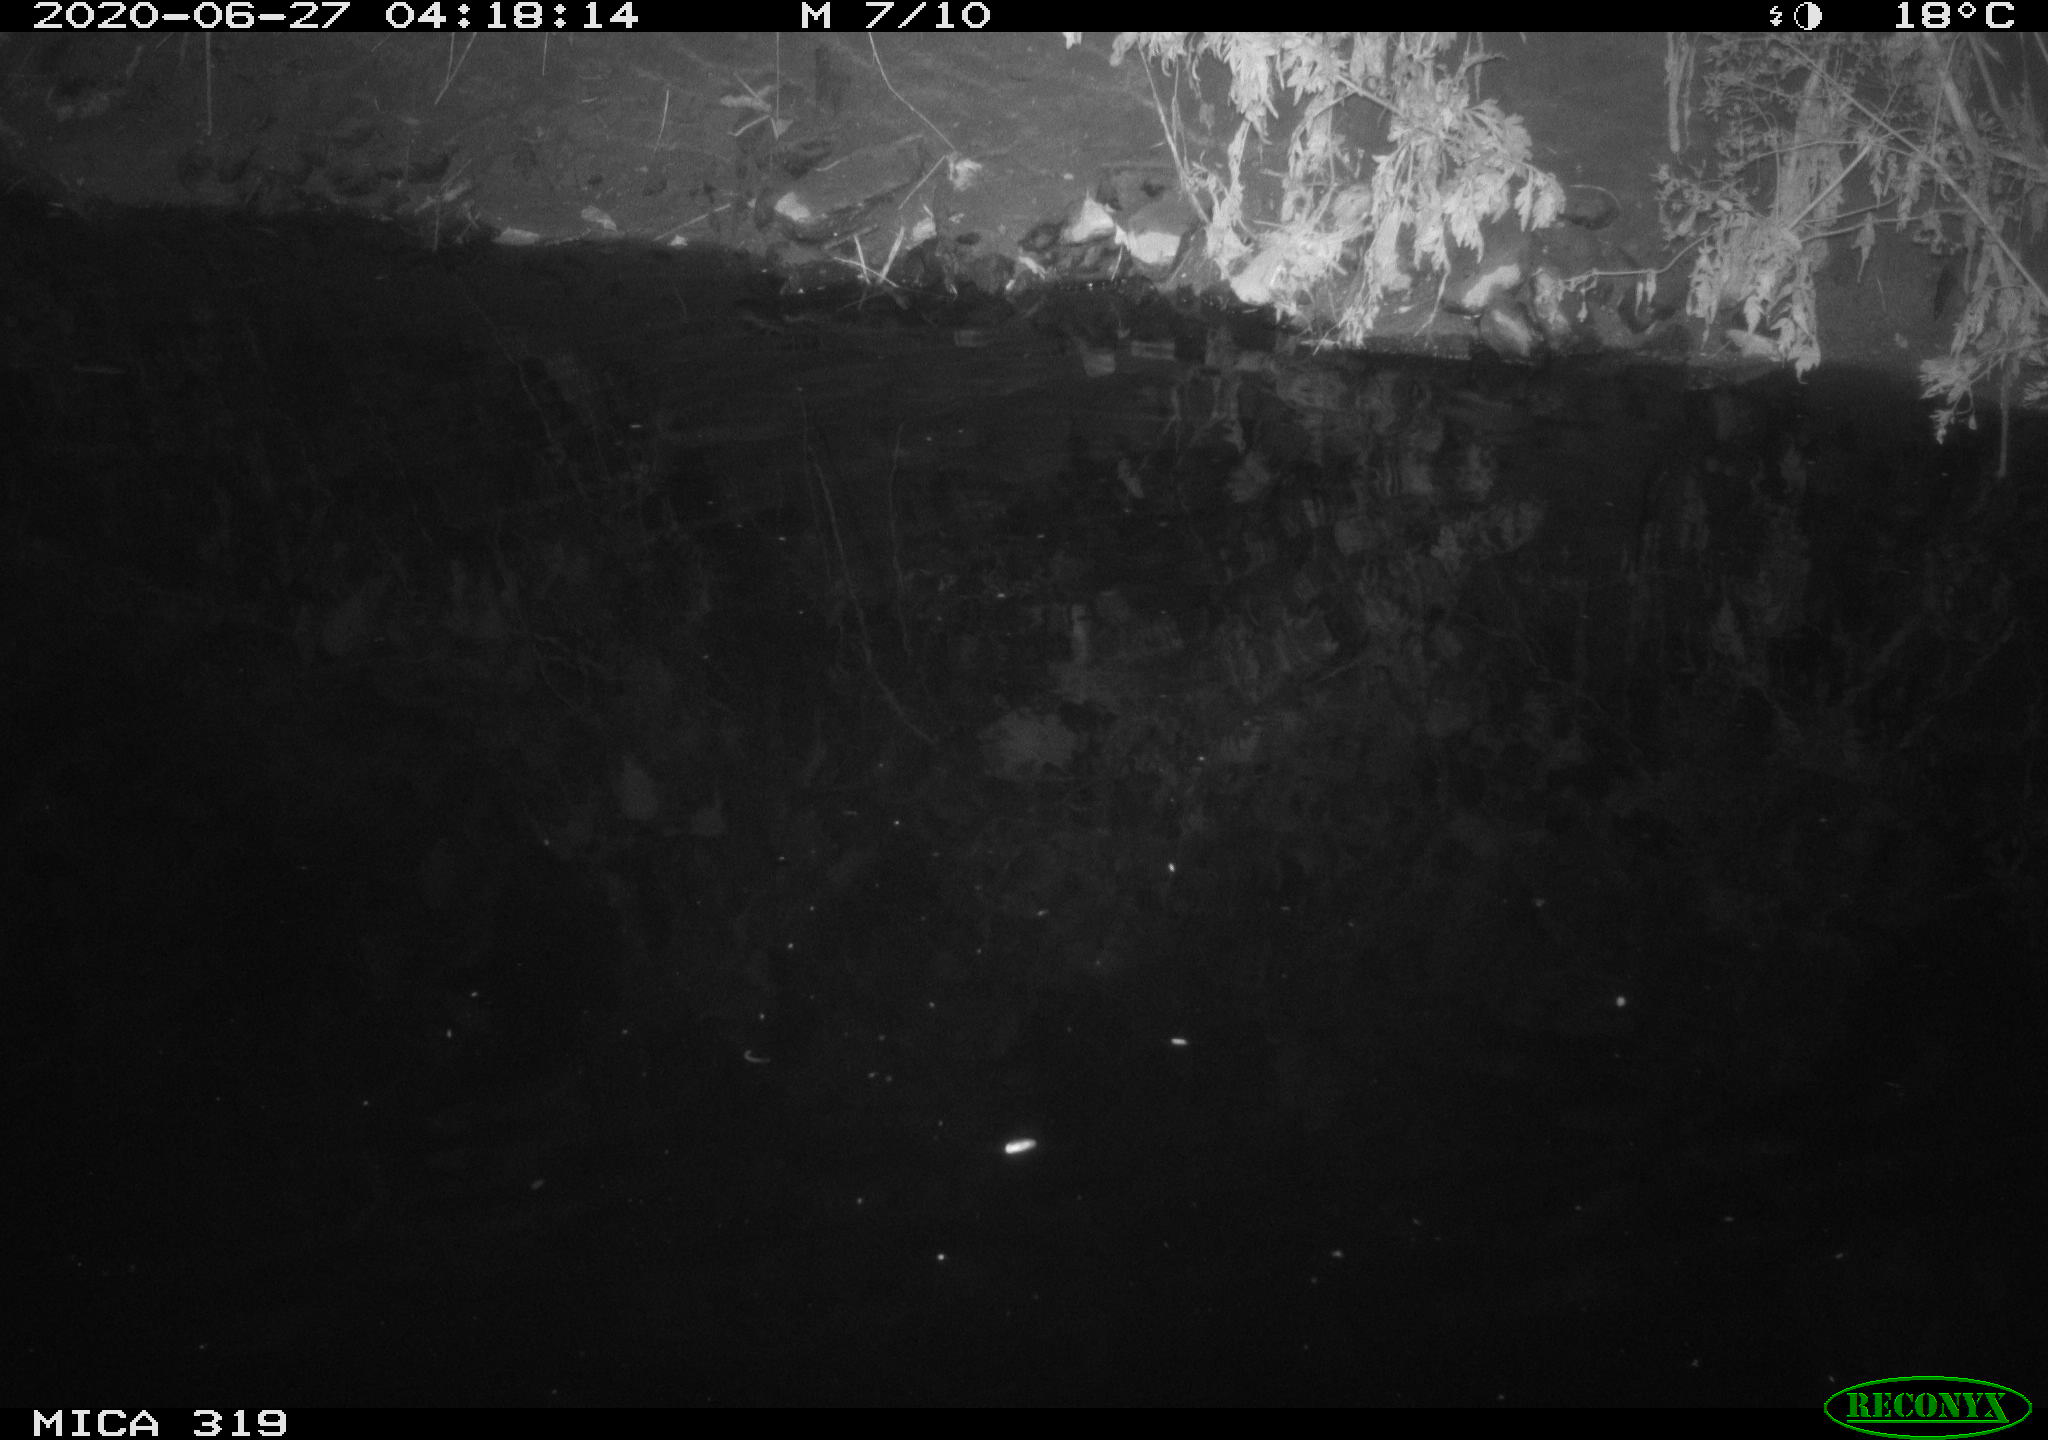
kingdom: Animalia
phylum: Chordata
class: Aves
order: Anseriformes
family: Anatidae
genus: Anas
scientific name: Anas platyrhynchos
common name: Mallard
